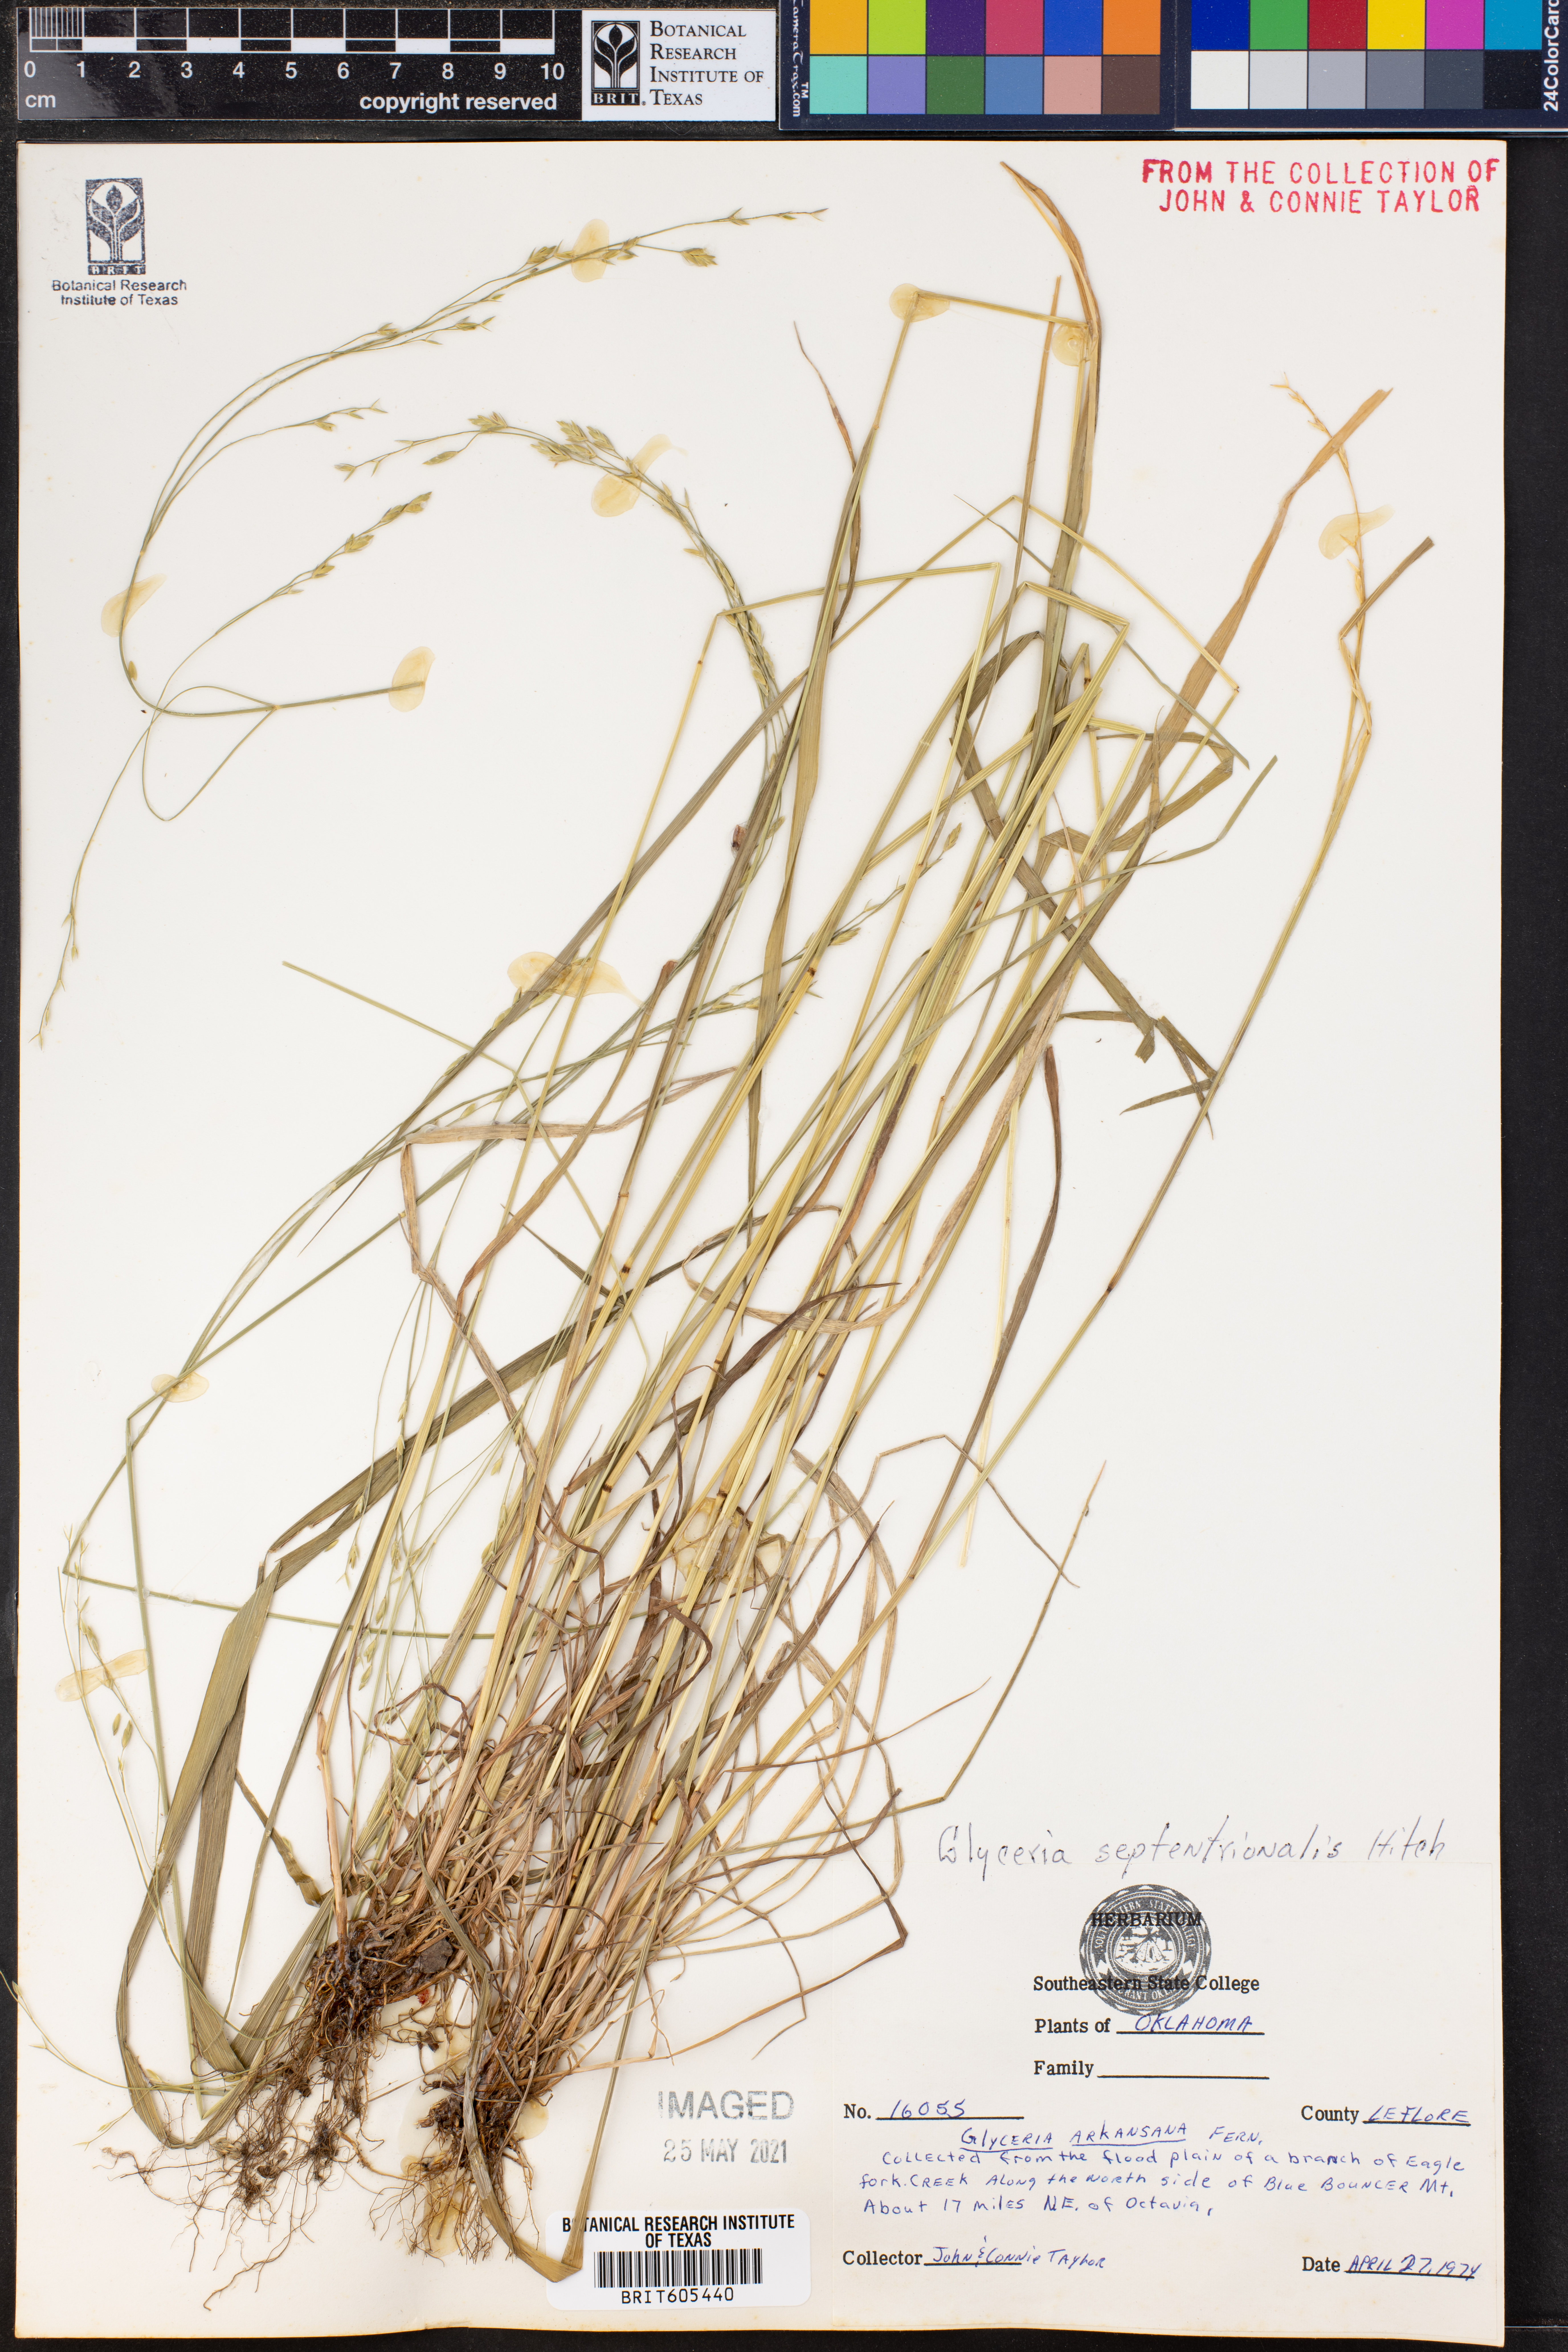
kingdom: Plantae
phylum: Tracheophyta
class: Liliopsida
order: Poales
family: Poaceae
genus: Glyceria
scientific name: Glyceria septentrionalis
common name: Eastern mannagrass
